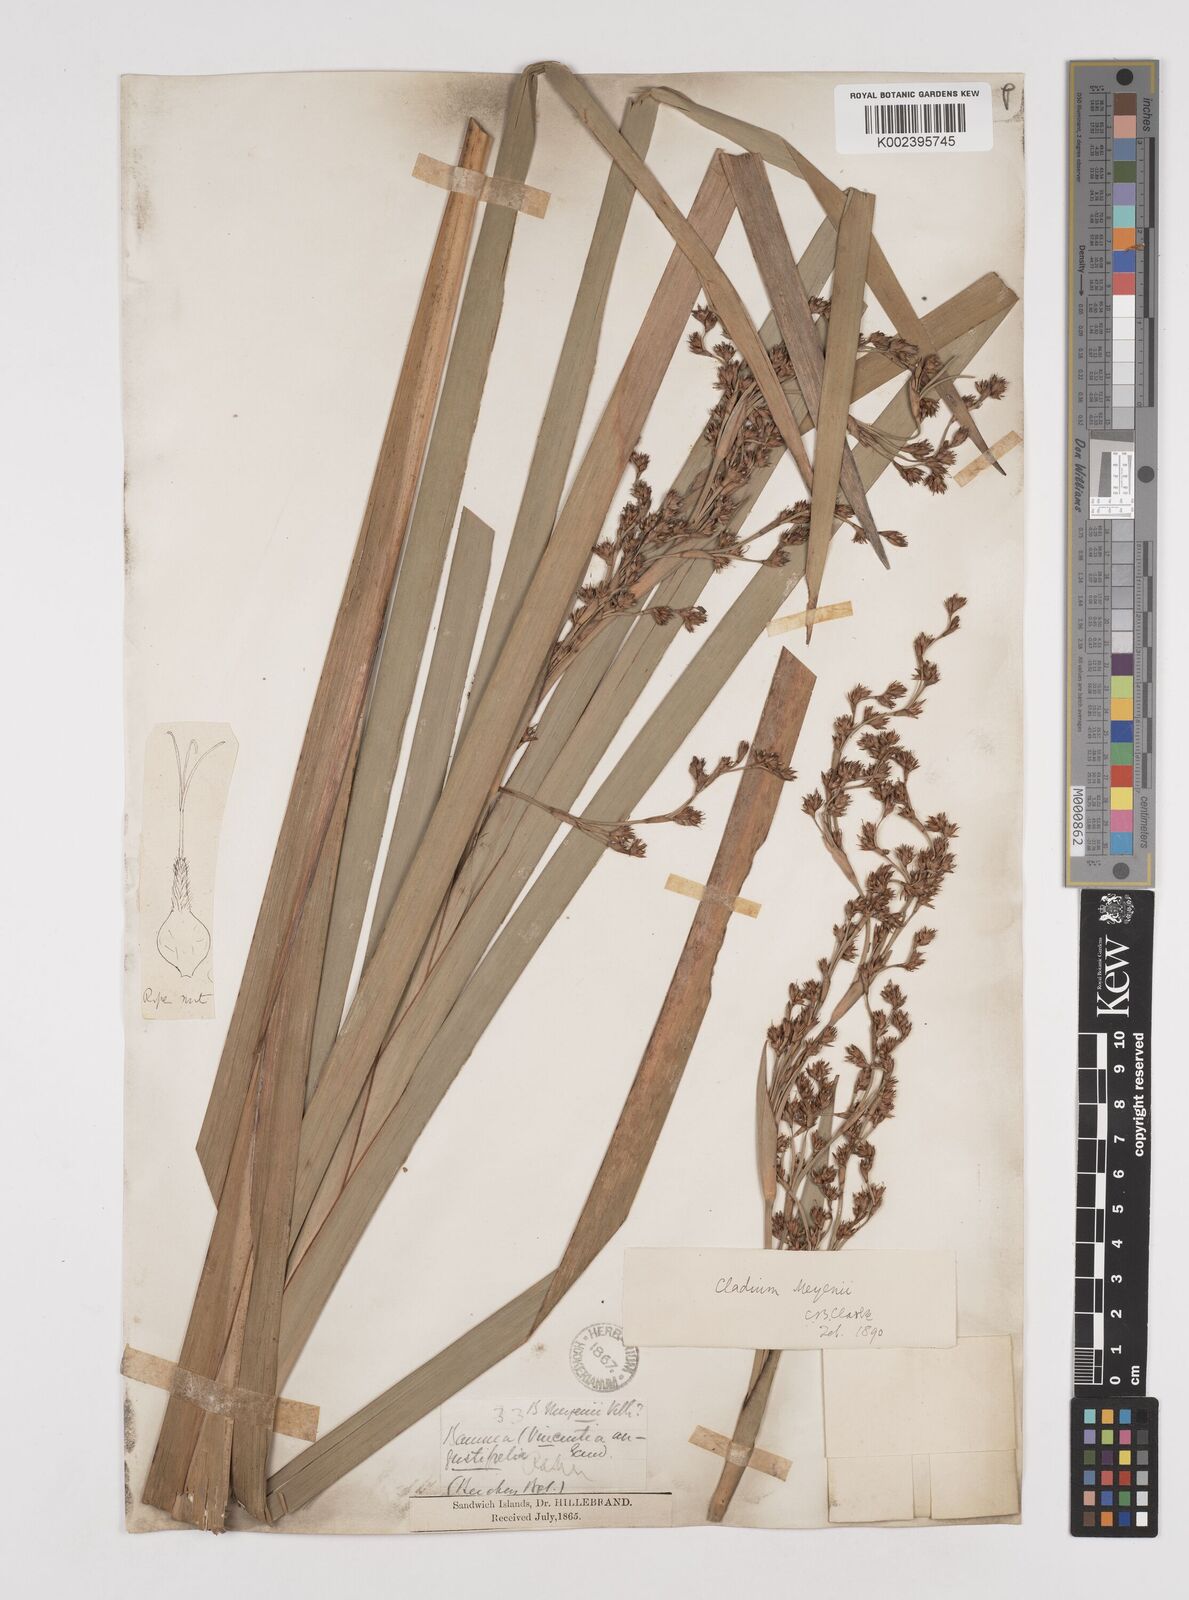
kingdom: Plantae
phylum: Tracheophyta
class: Liliopsida
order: Poales
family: Cyperaceae
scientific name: Cyperaceae
